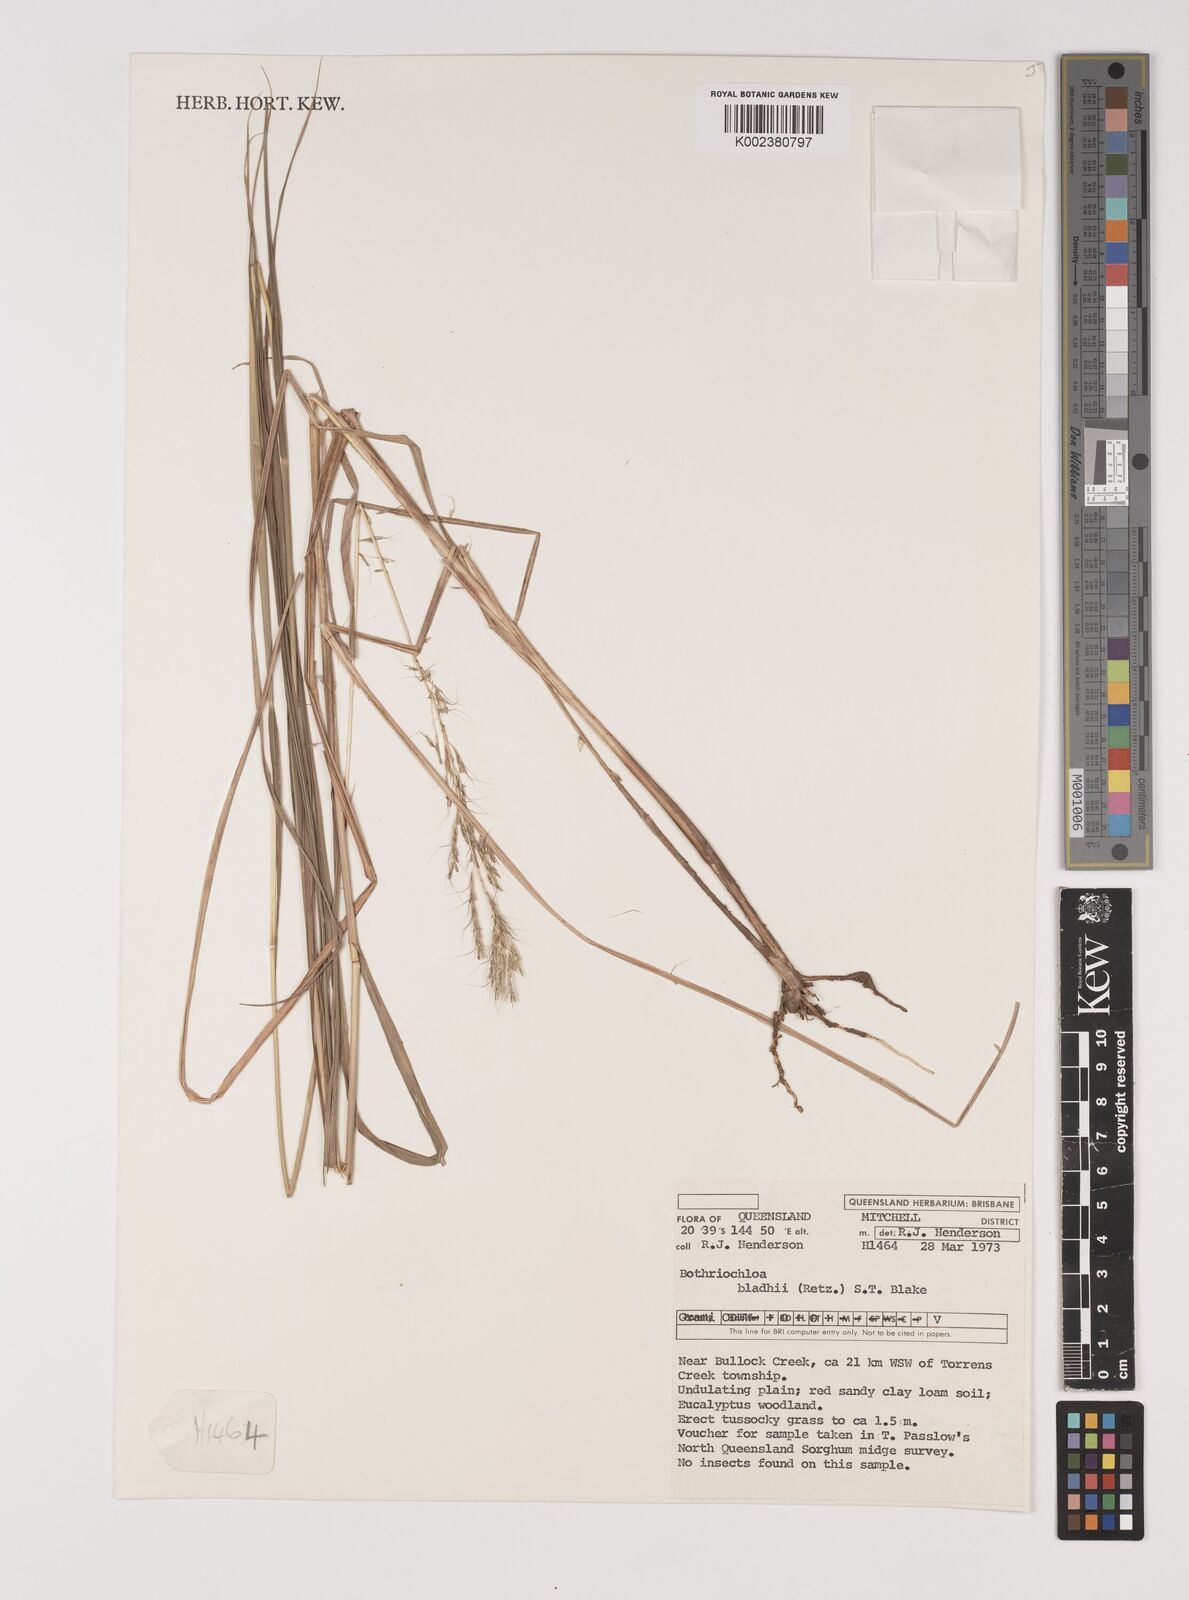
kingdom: Plantae
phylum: Tracheophyta
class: Liliopsida
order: Poales
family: Poaceae
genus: Bothriochloa
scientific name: Bothriochloa bladhii
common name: Caucasian bluestem
